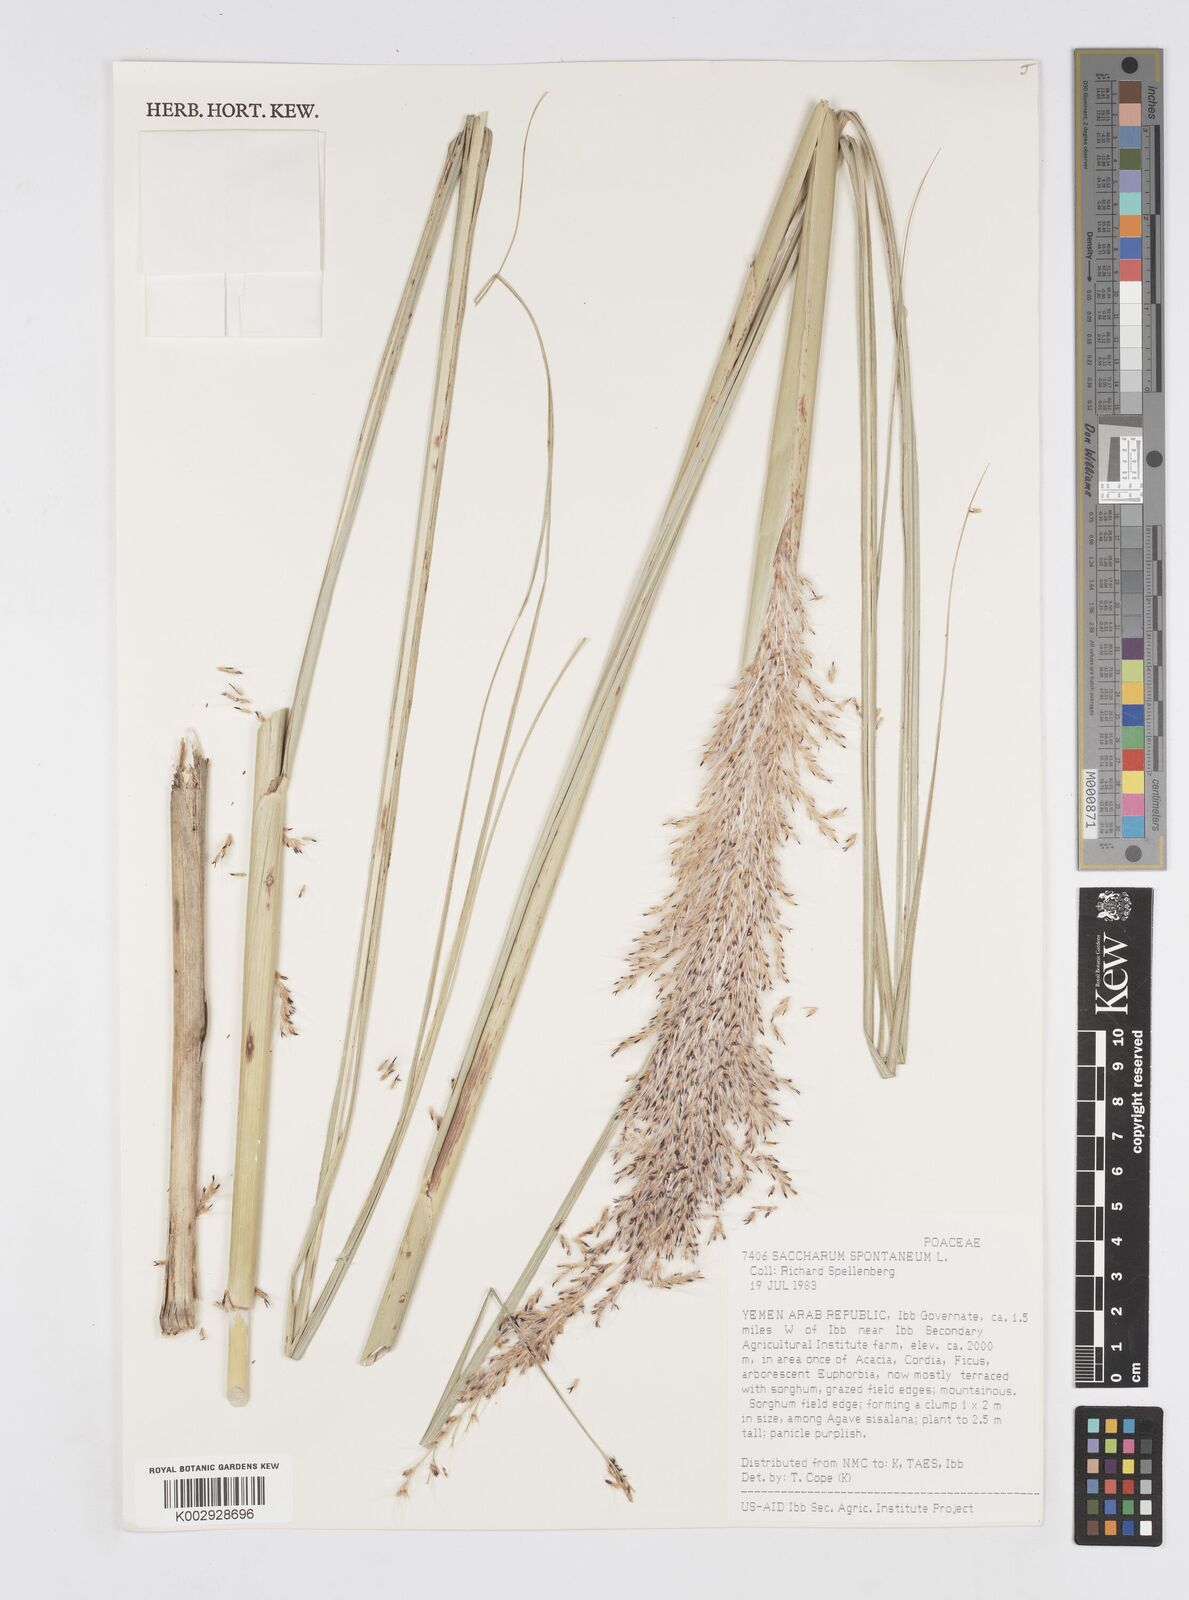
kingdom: Plantae
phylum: Tracheophyta
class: Liliopsida
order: Poales
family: Poaceae
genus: Saccharum
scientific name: Saccharum spontaneum
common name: Wild sugarcane
